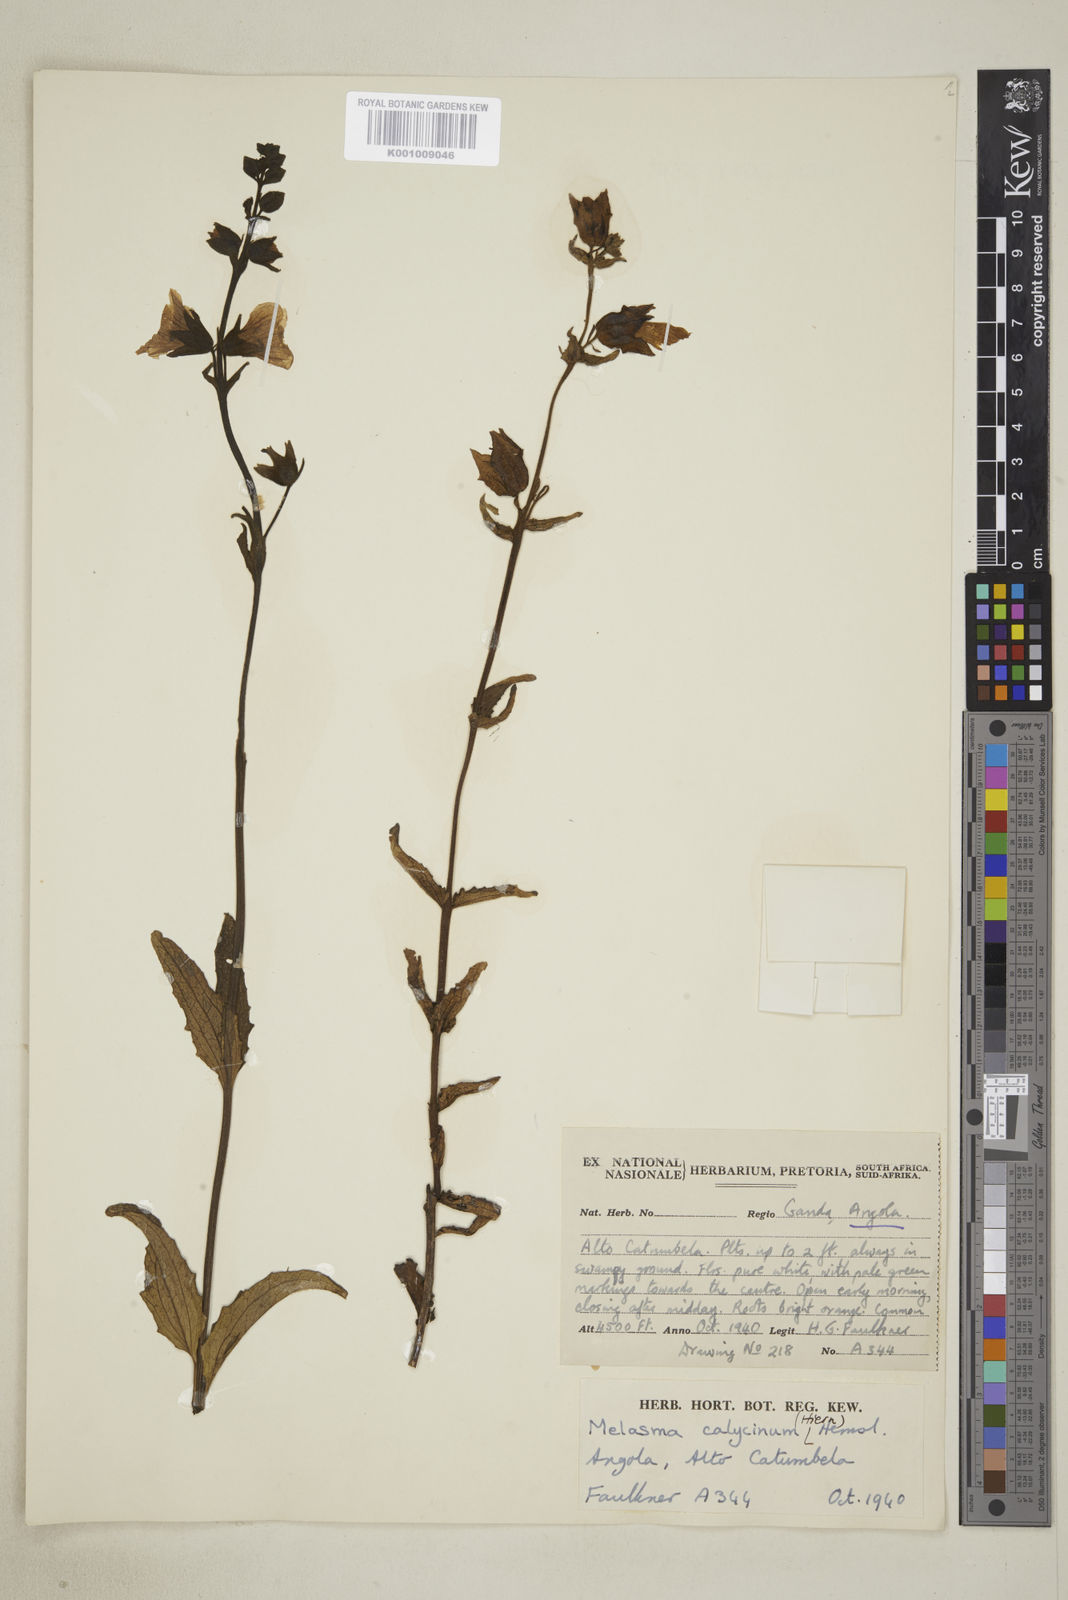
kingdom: Plantae
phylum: Tracheophyta
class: Magnoliopsida
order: Lamiales
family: Orobanchaceae
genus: Melasma
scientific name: Melasma
